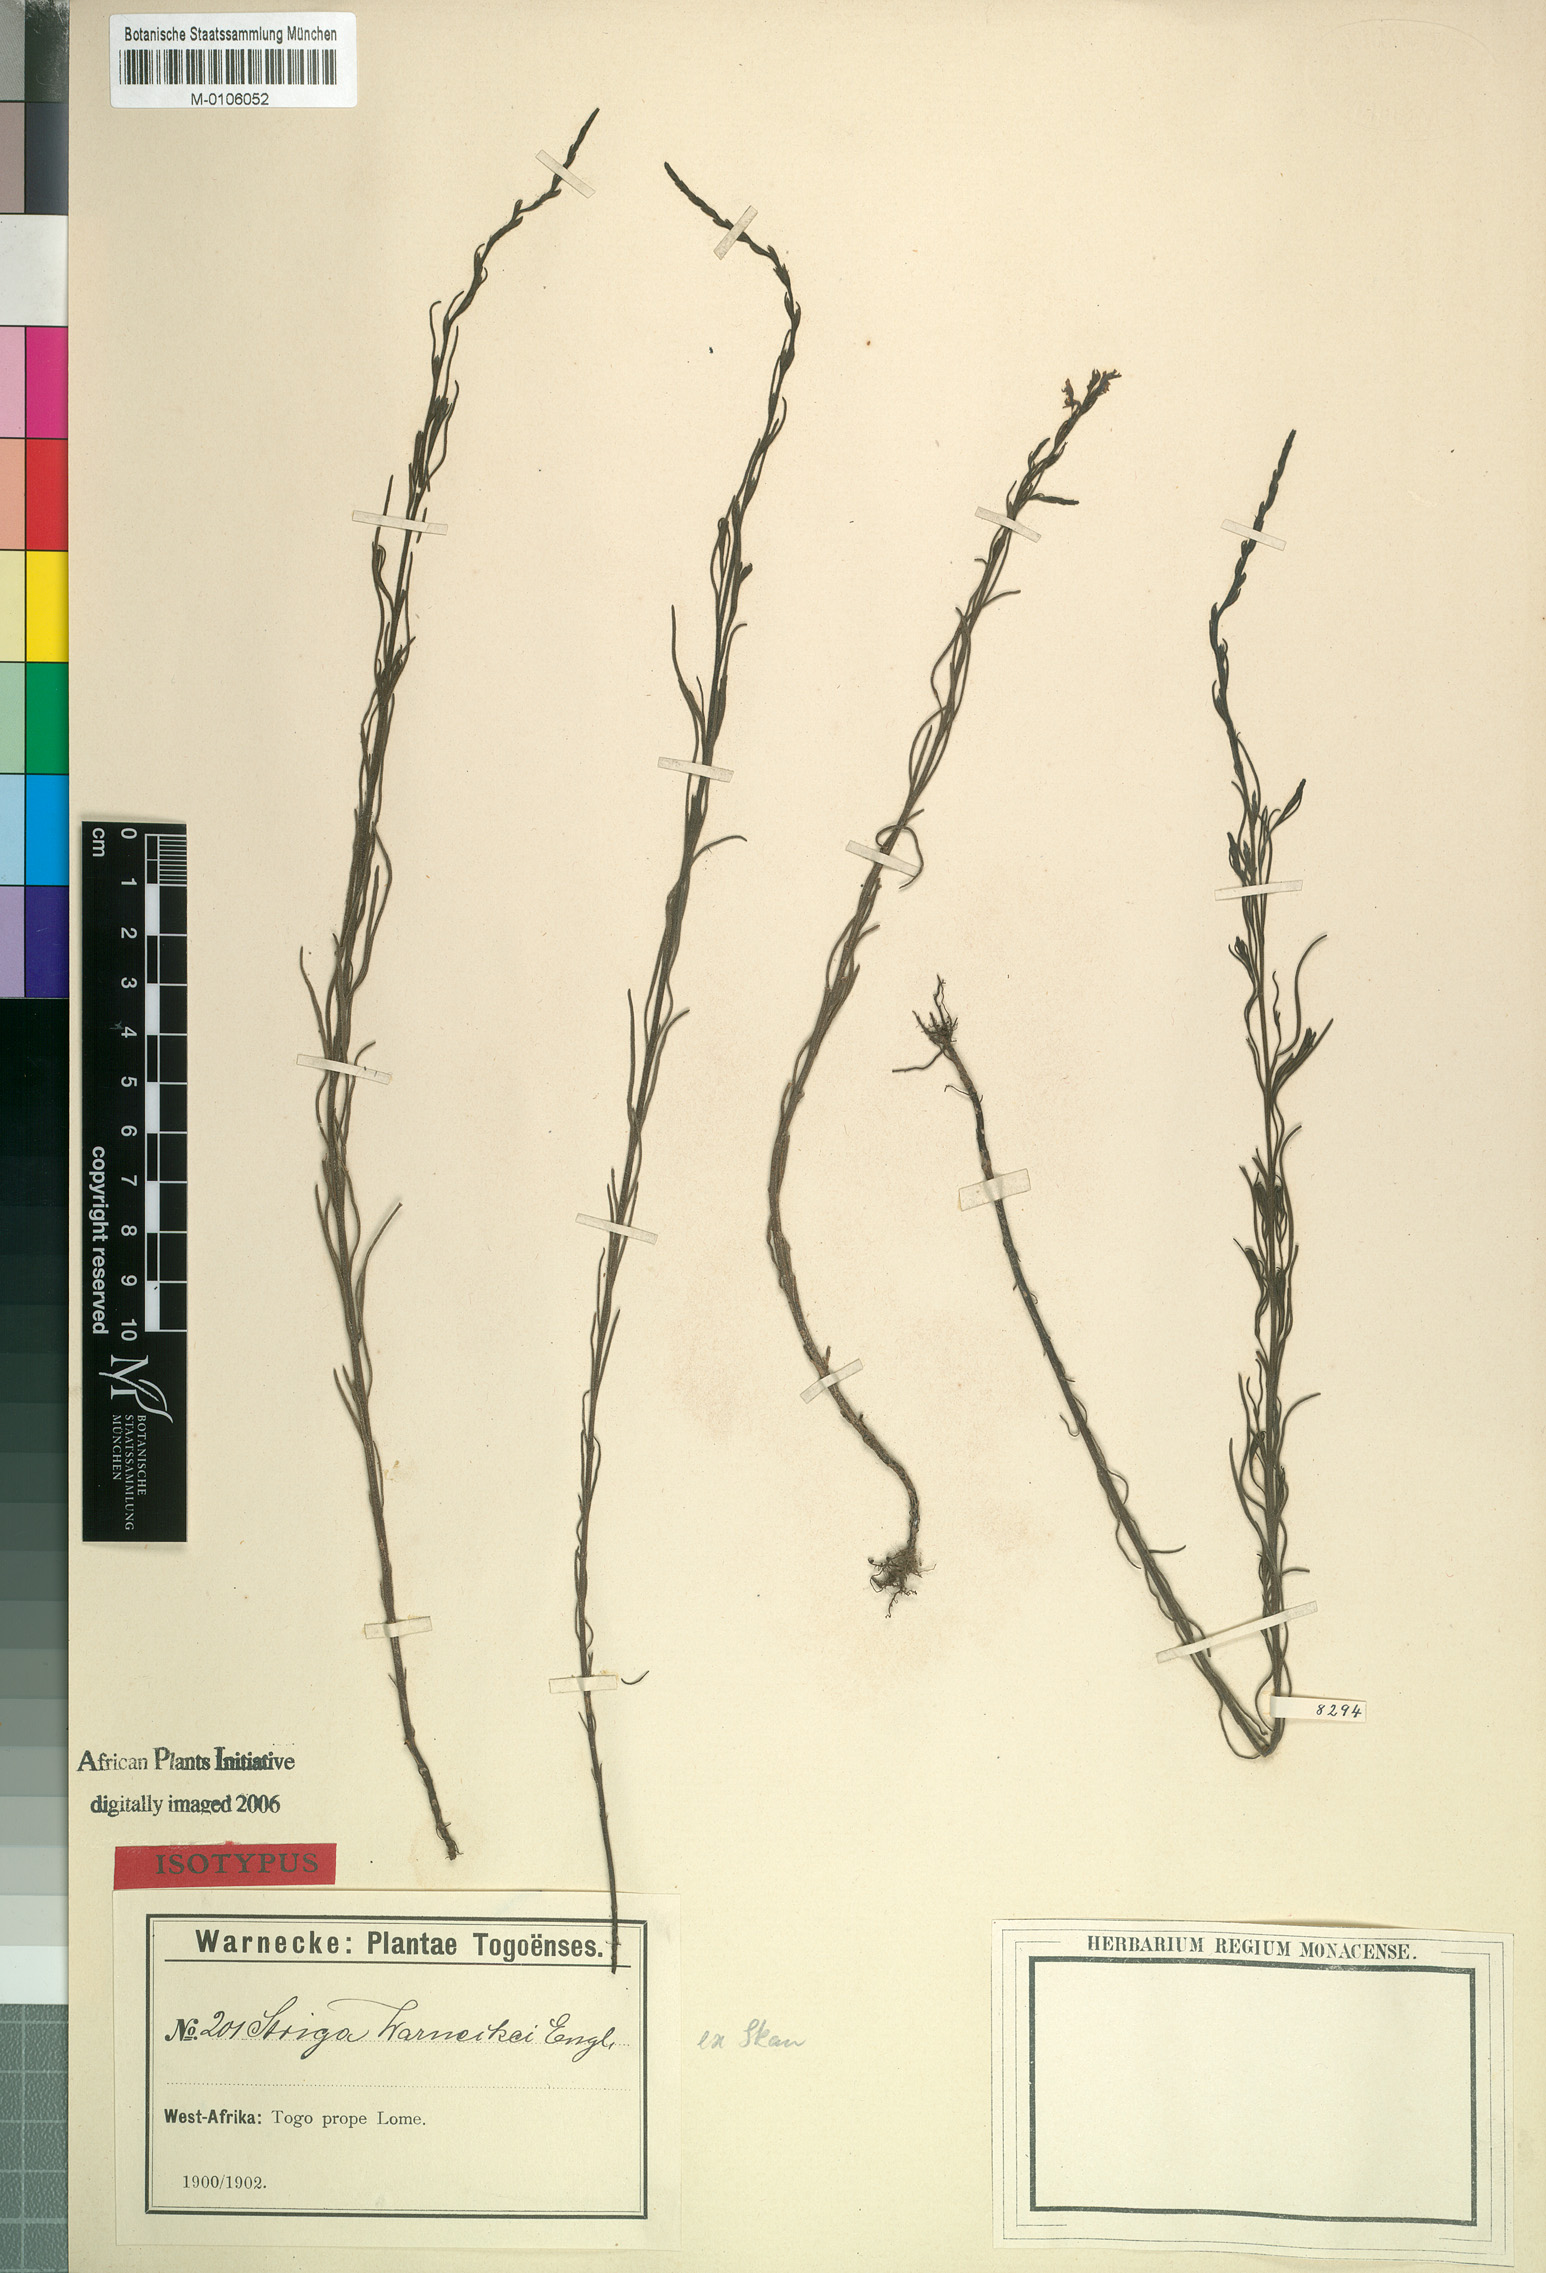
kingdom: Plantae
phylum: Tracheophyta
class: Magnoliopsida
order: Lamiales
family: Orobanchaceae
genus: Striga
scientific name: Striga brachycalyx
